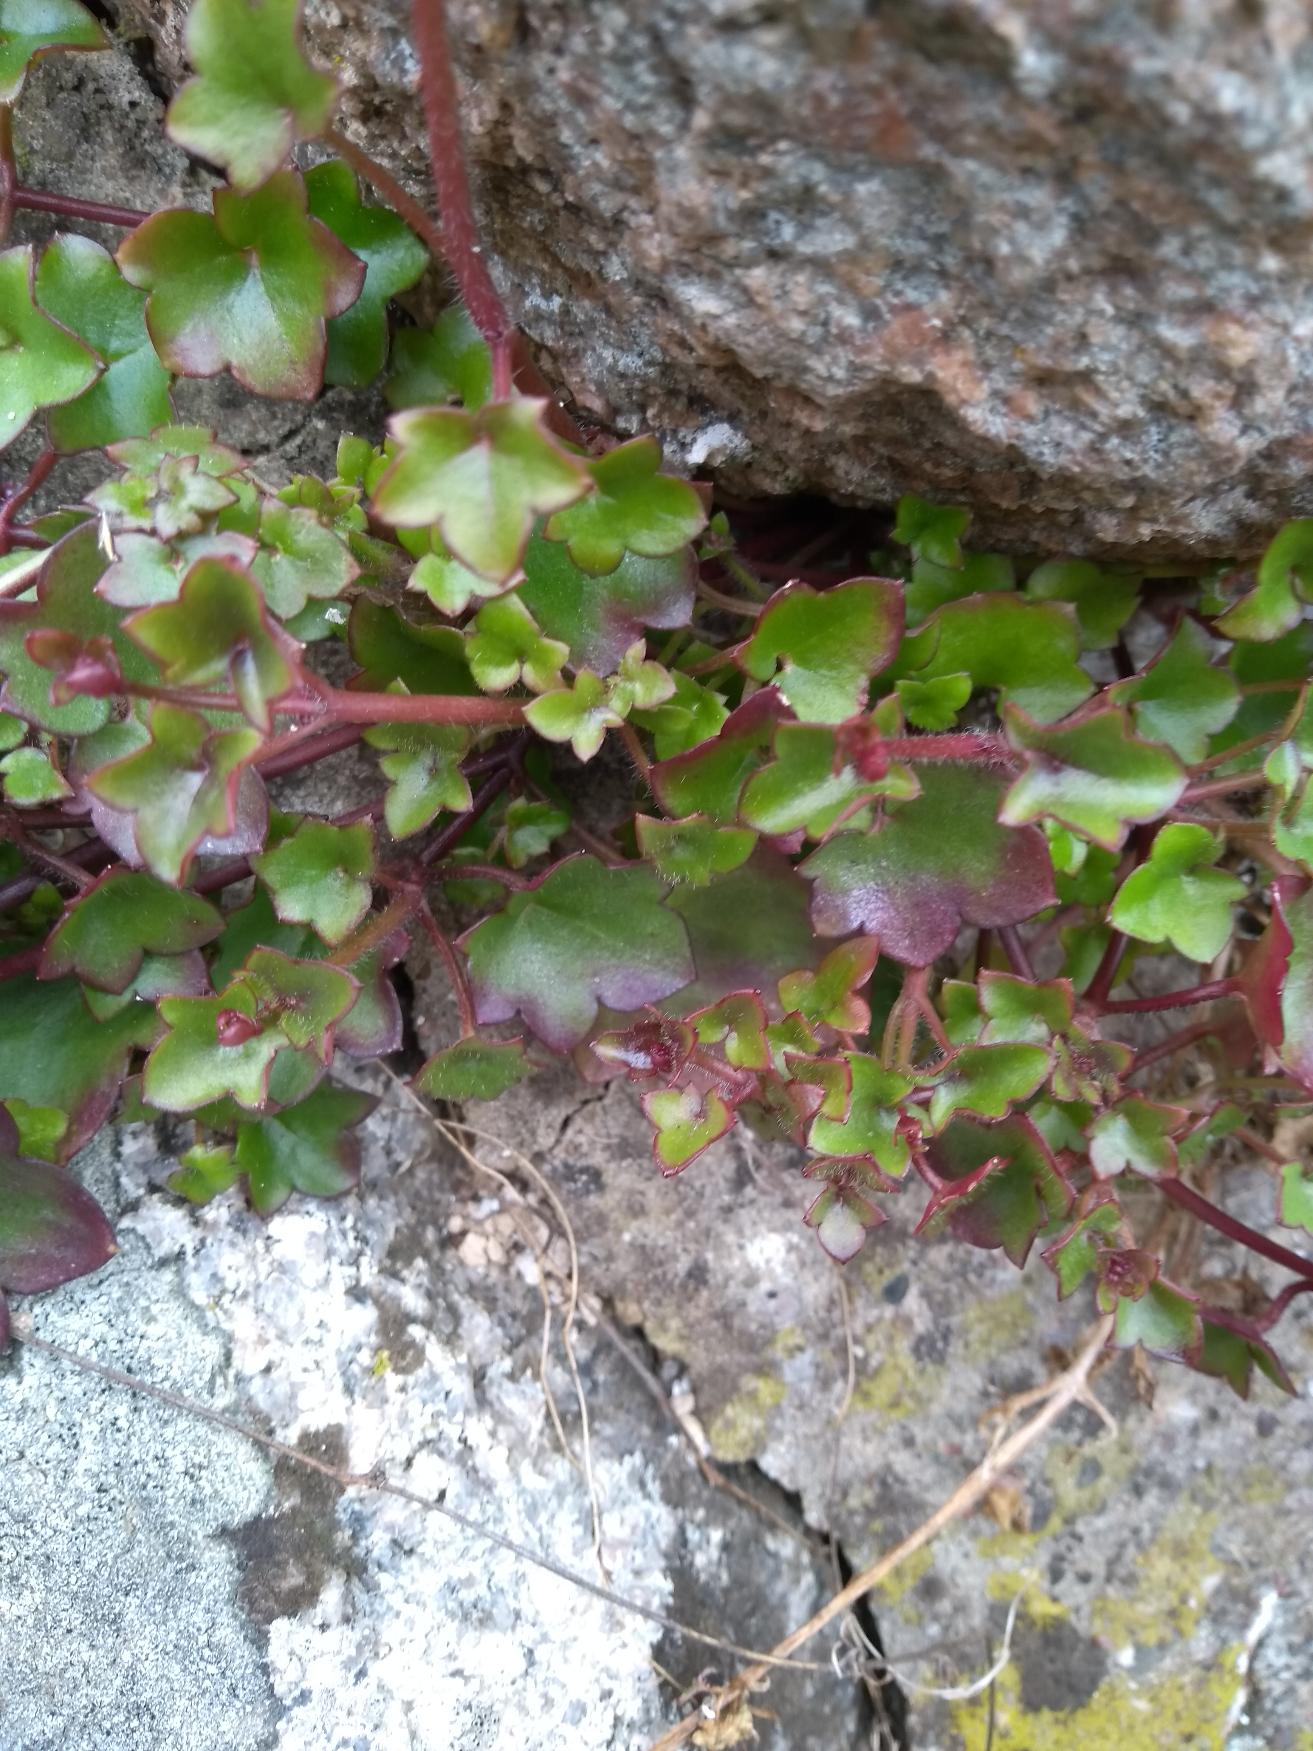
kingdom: Plantae
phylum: Tracheophyta
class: Magnoliopsida
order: Lamiales
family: Plantaginaceae
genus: Cymbalaria
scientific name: Cymbalaria muralis
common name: Vedbend-torskemund
